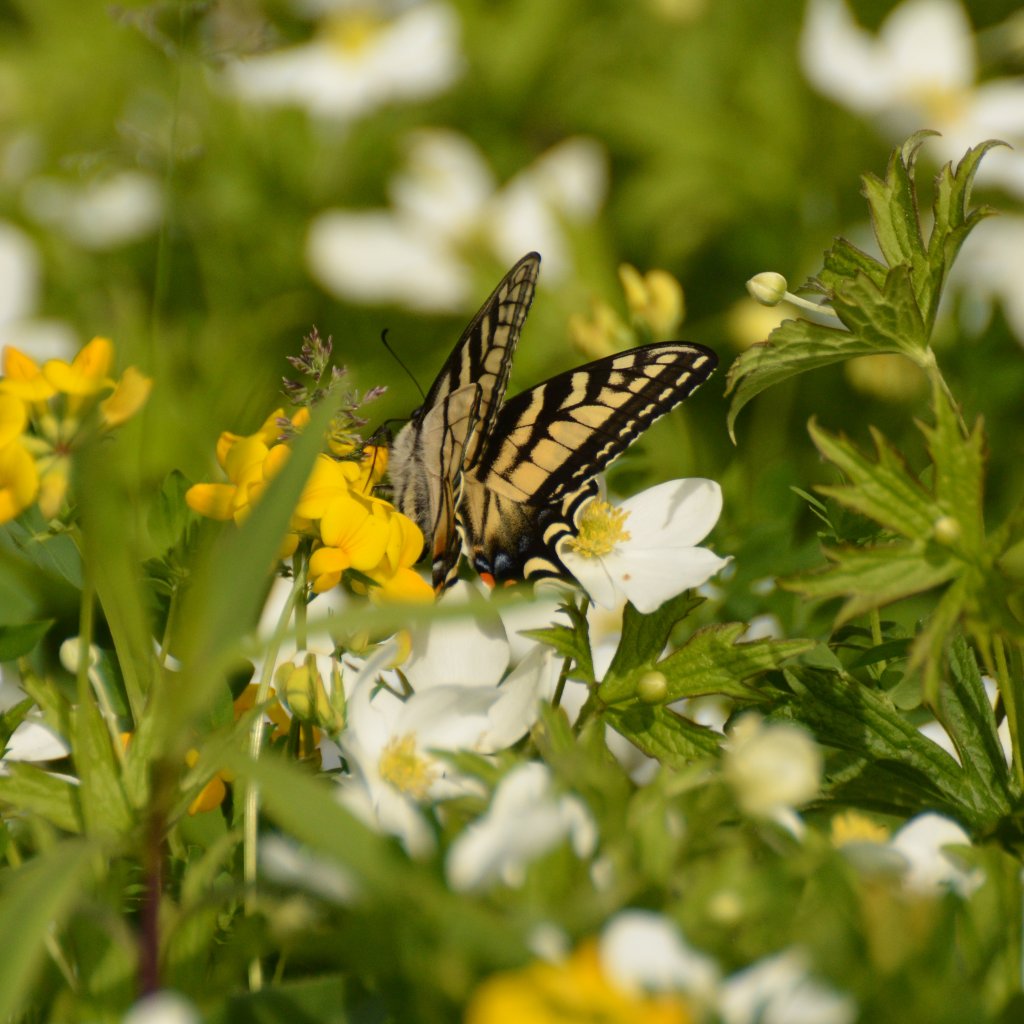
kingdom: Animalia
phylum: Arthropoda
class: Insecta
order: Lepidoptera
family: Papilionidae
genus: Pterourus
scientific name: Pterourus canadensis
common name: Canadian Tiger Swallowtail
